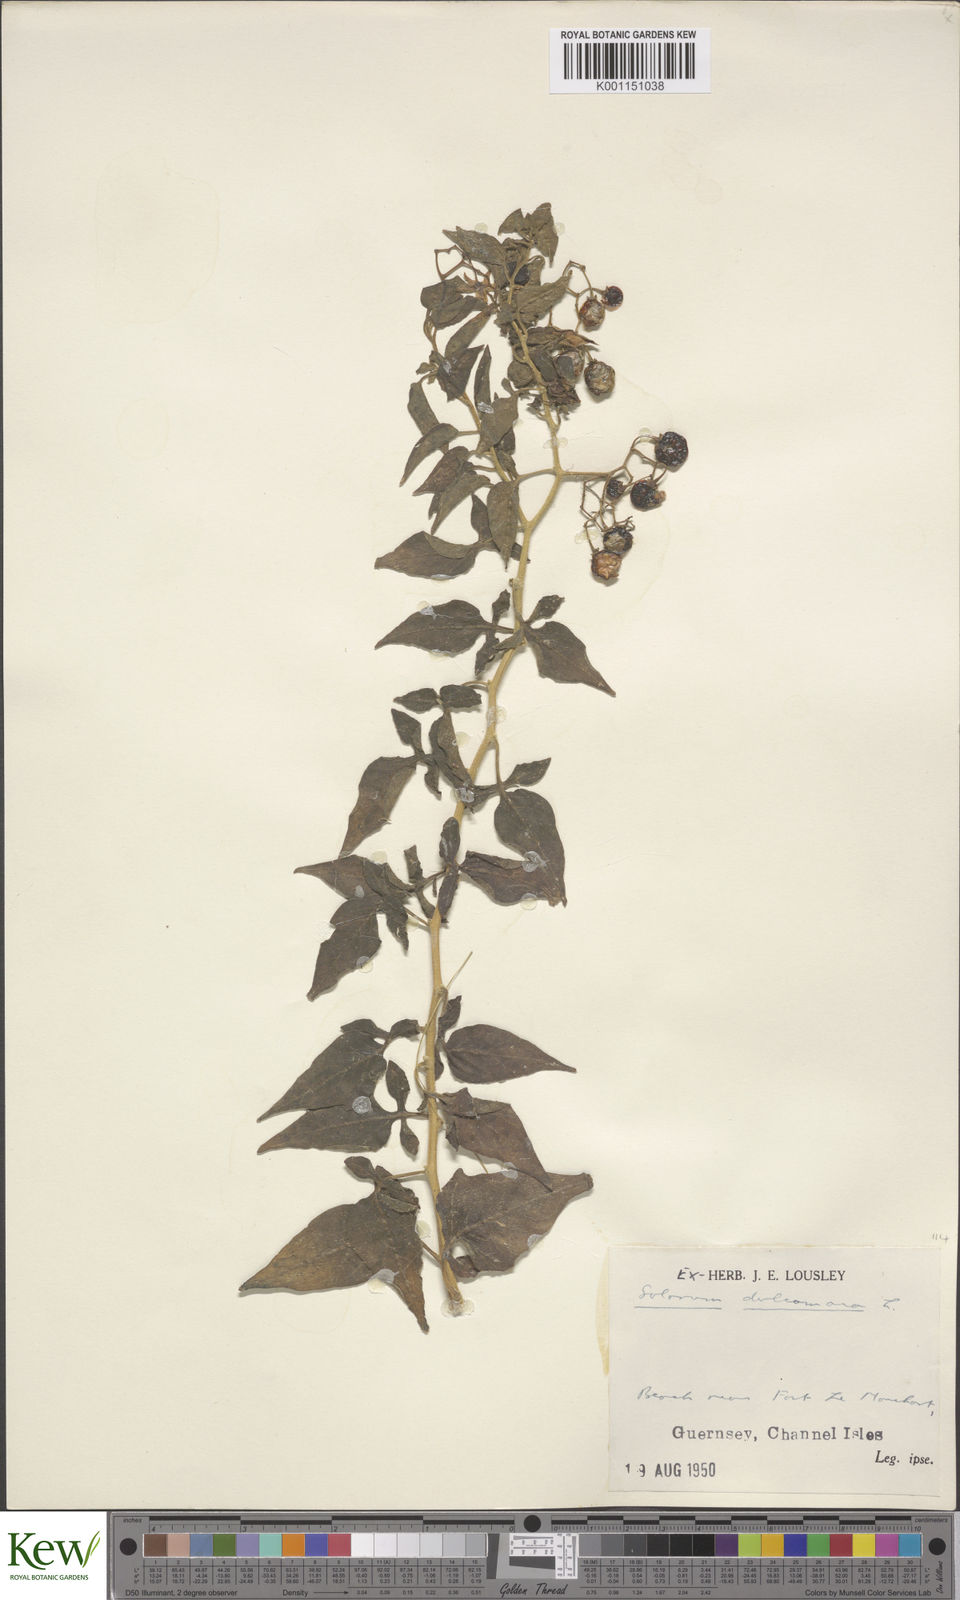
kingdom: Plantae
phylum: Tracheophyta
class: Magnoliopsida
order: Solanales
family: Solanaceae
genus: Solanum
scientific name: Solanum dulcamara
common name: Climbing nightshade
